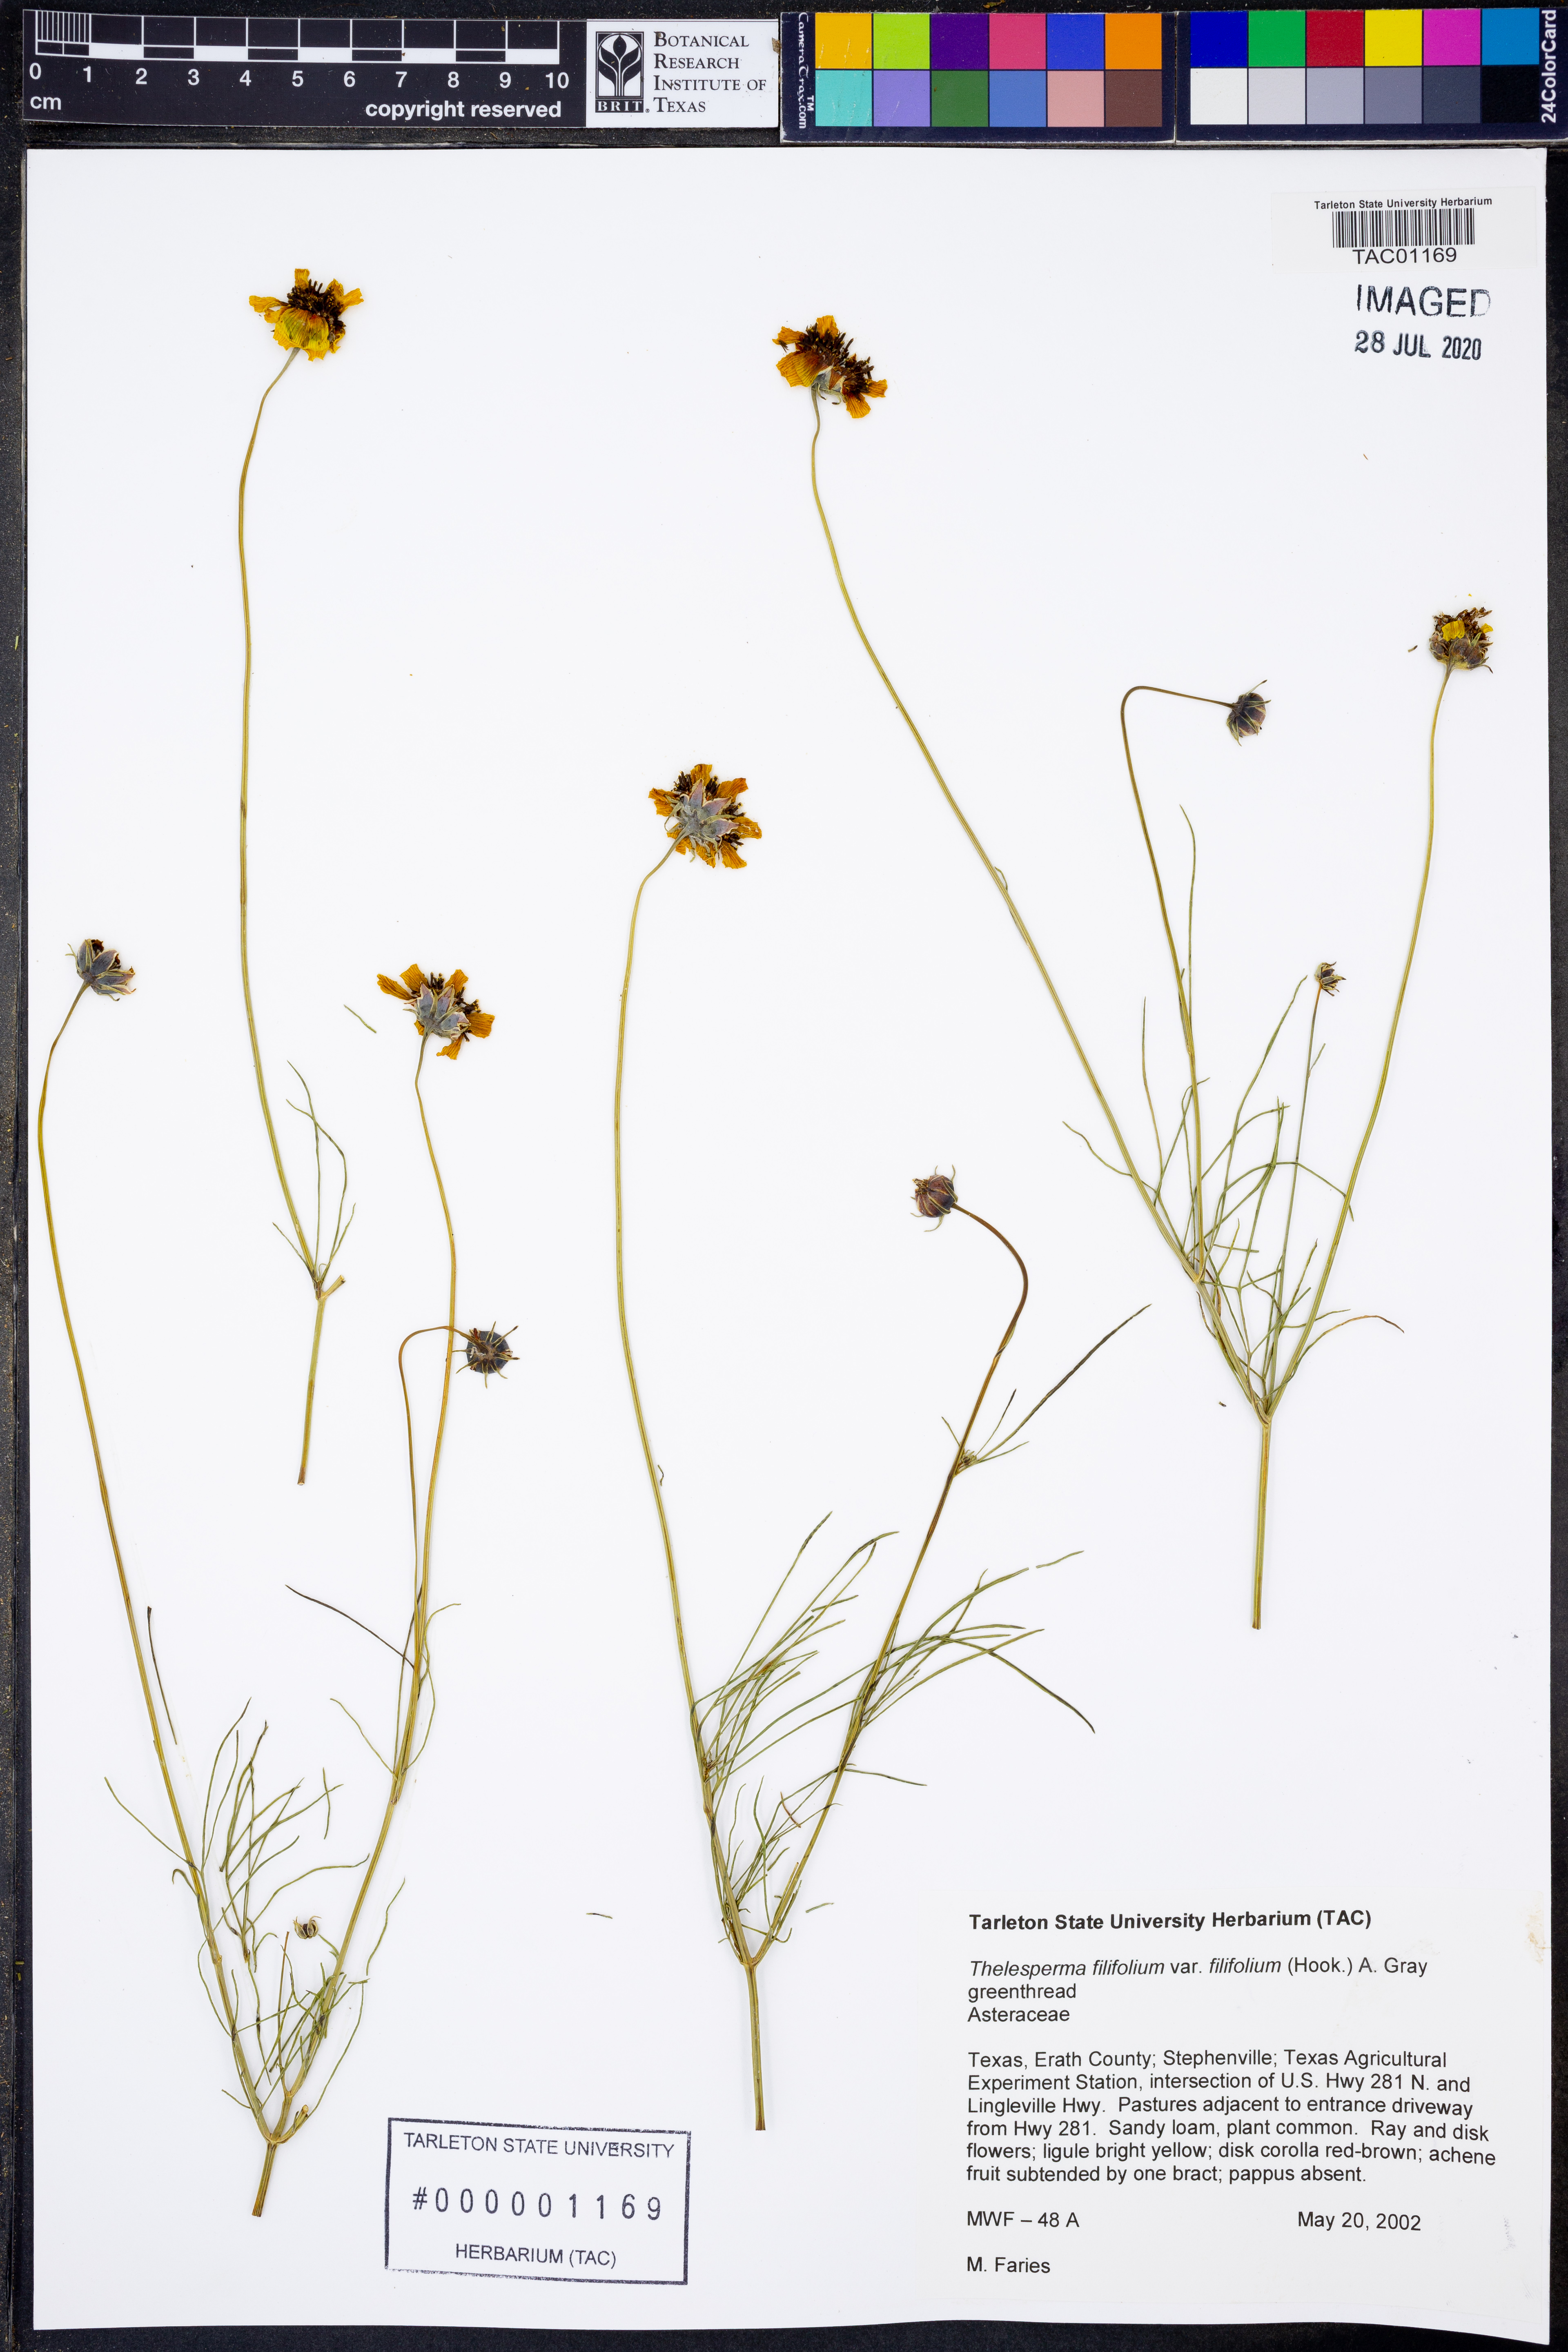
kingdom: Plantae
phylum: Tracheophyta
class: Magnoliopsida
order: Asterales
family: Asteraceae
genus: Thelesperma
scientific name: Thelesperma filifolium
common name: Stiff greenthread
